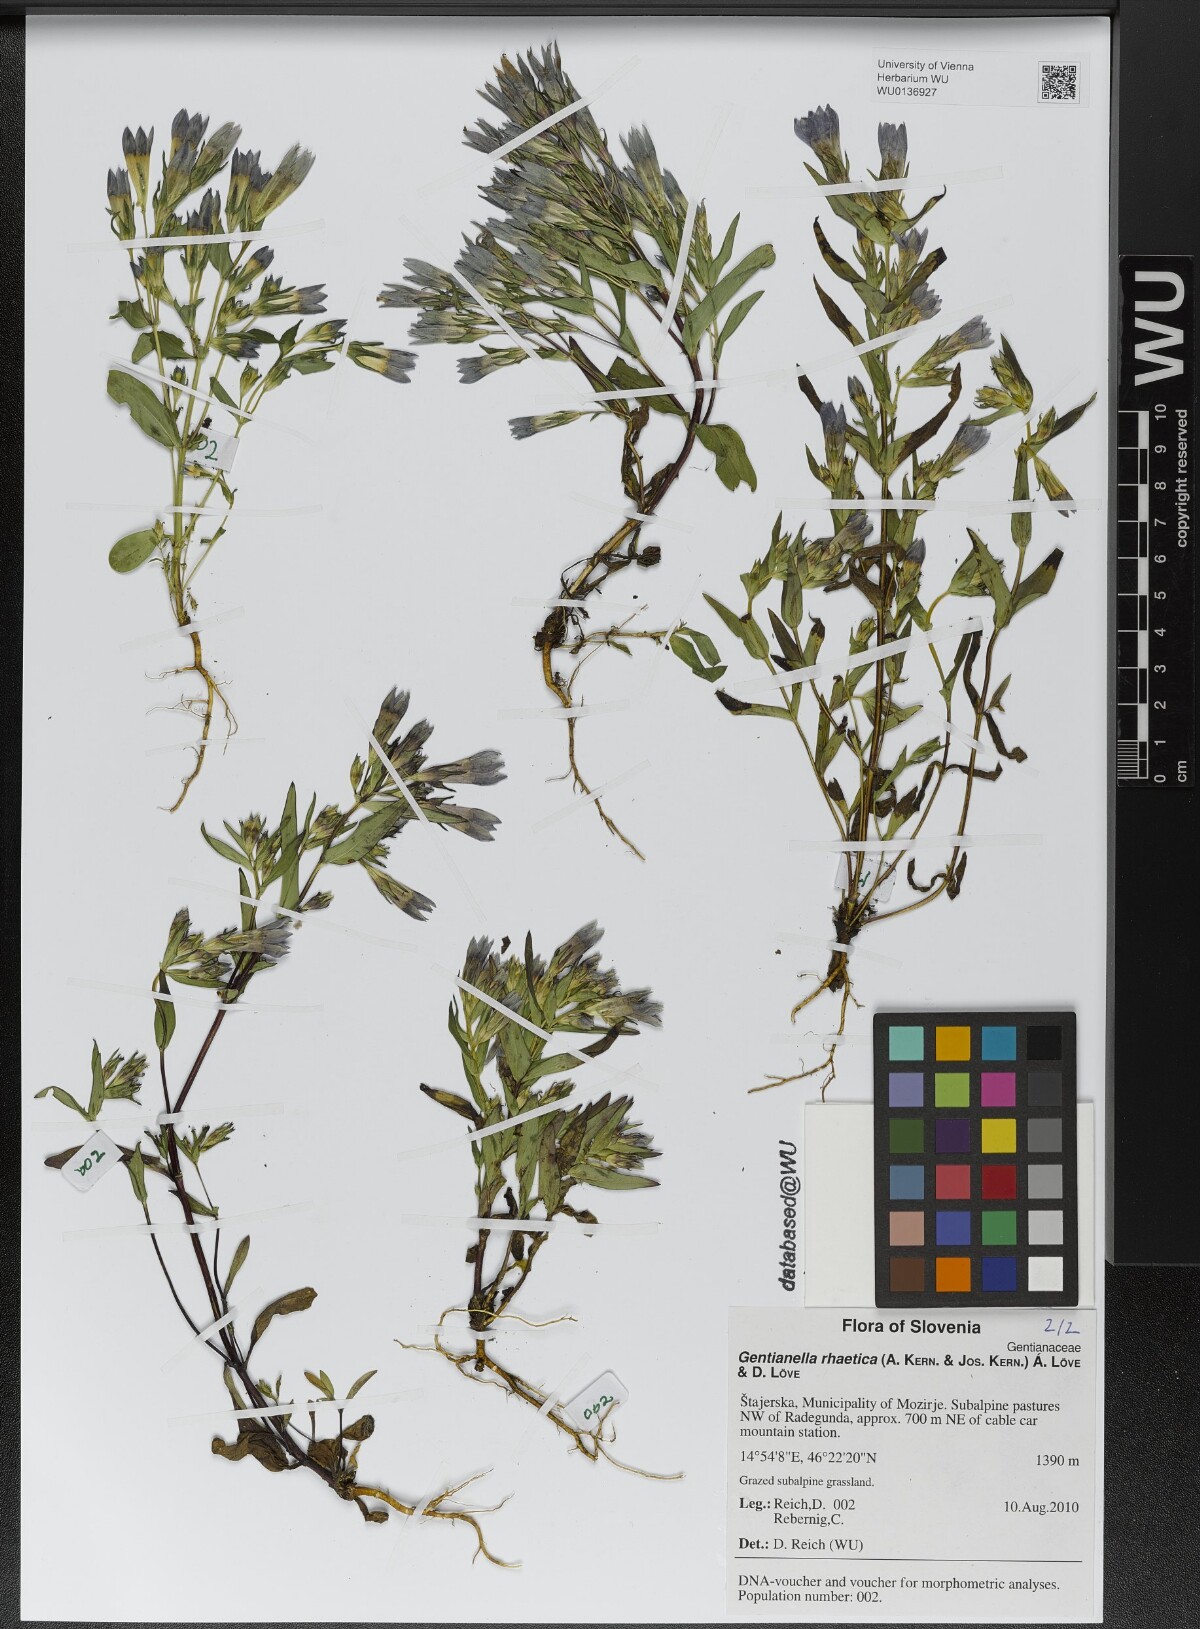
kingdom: Plantae
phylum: Tracheophyta
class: Magnoliopsida
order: Gentianales
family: Gentianaceae
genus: Gentianella
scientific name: Gentianella rhaetica
